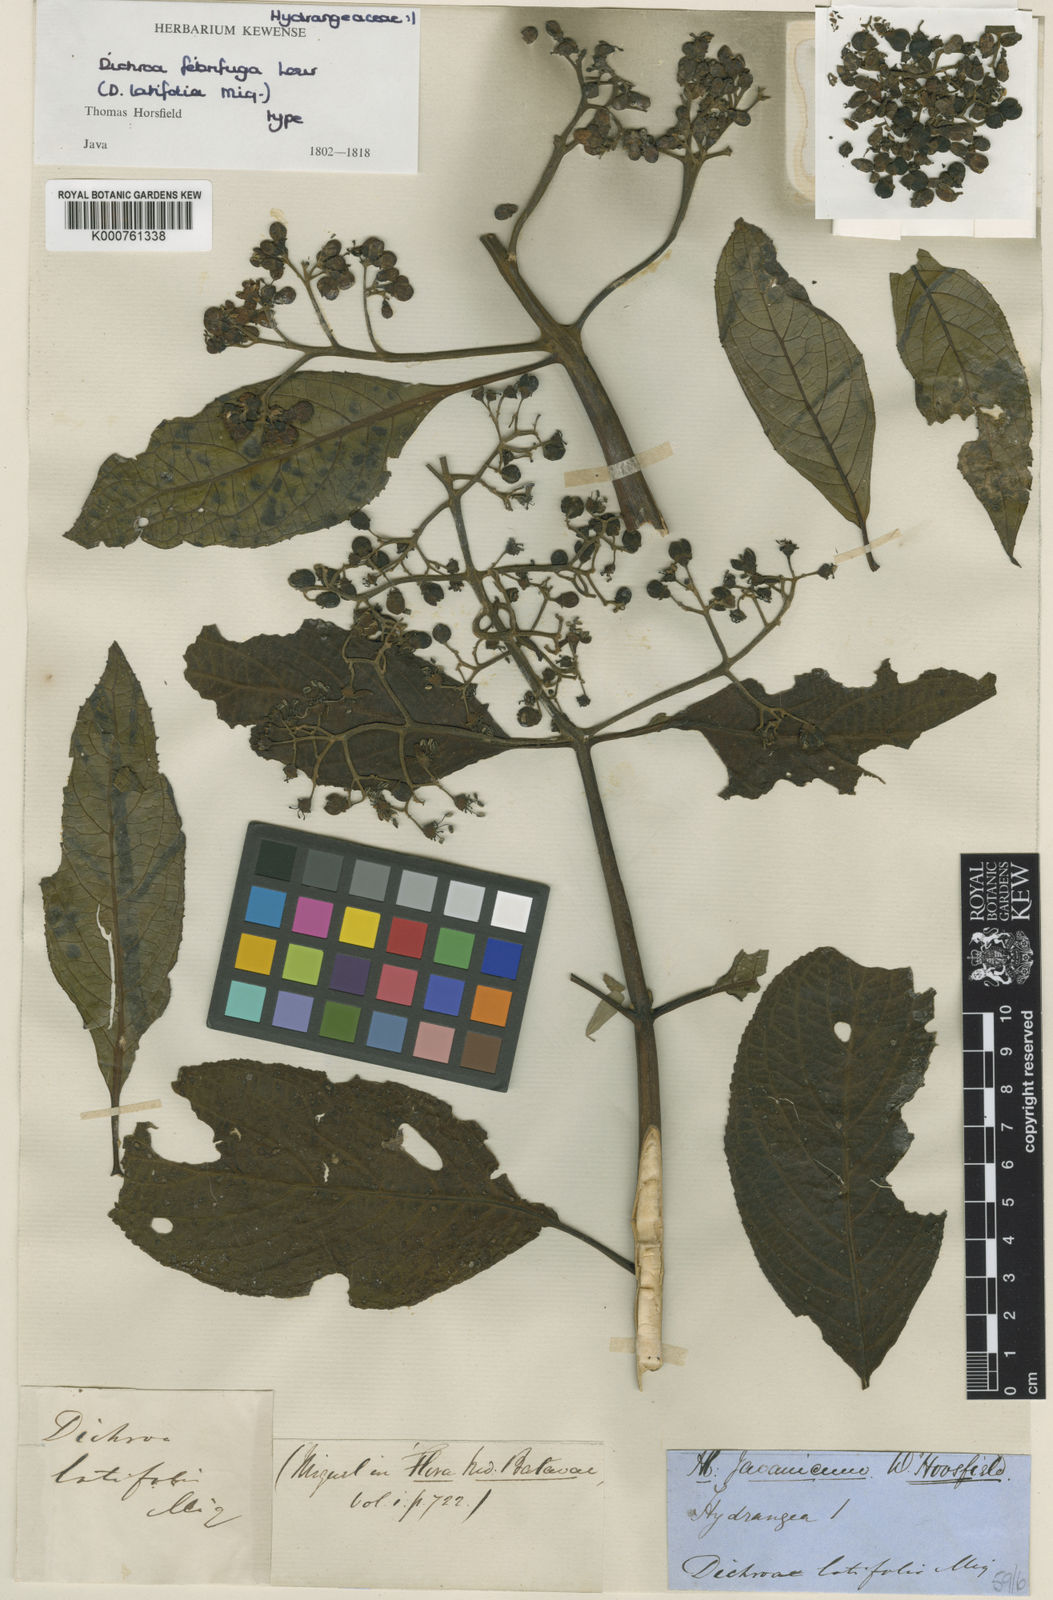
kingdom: Plantae
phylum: Tracheophyta
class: Magnoliopsida
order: Cornales
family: Hydrangeaceae
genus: Hydrangea
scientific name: Hydrangea febrifuga
